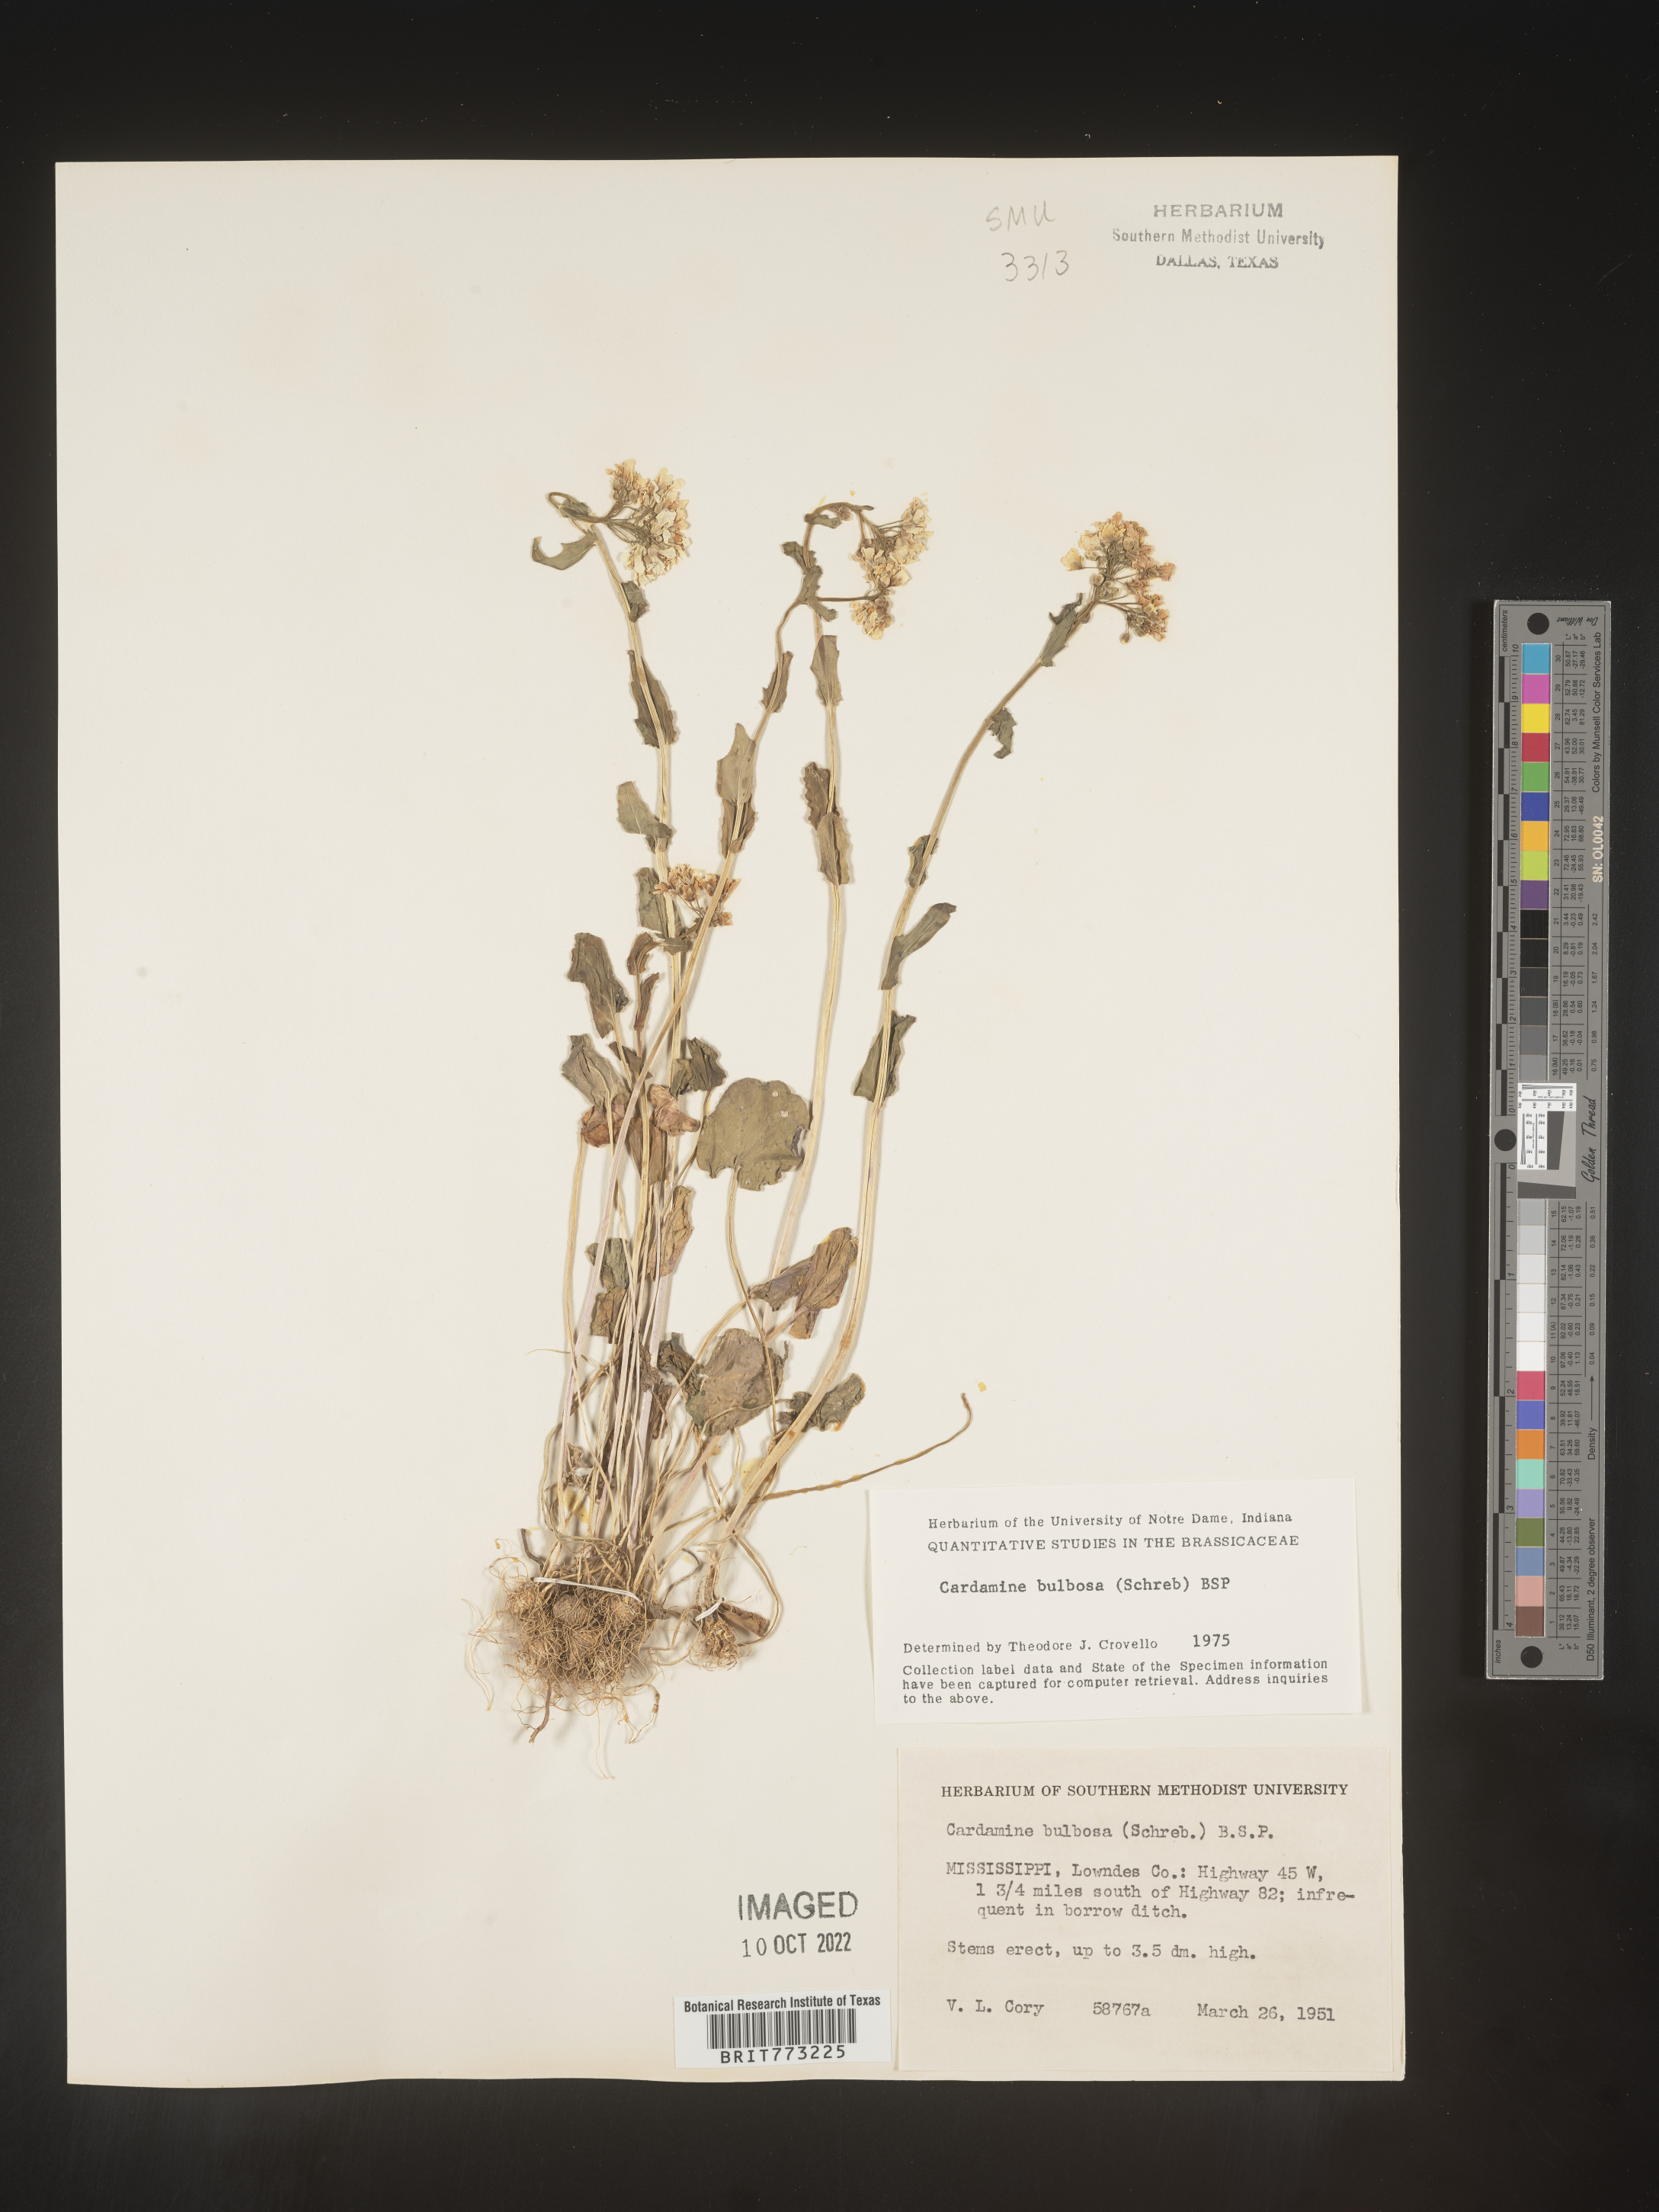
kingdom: Plantae
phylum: Tracheophyta
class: Magnoliopsida
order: Brassicales
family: Brassicaceae
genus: Cardamine
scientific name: Cardamine bulbosa
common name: Spring cress
